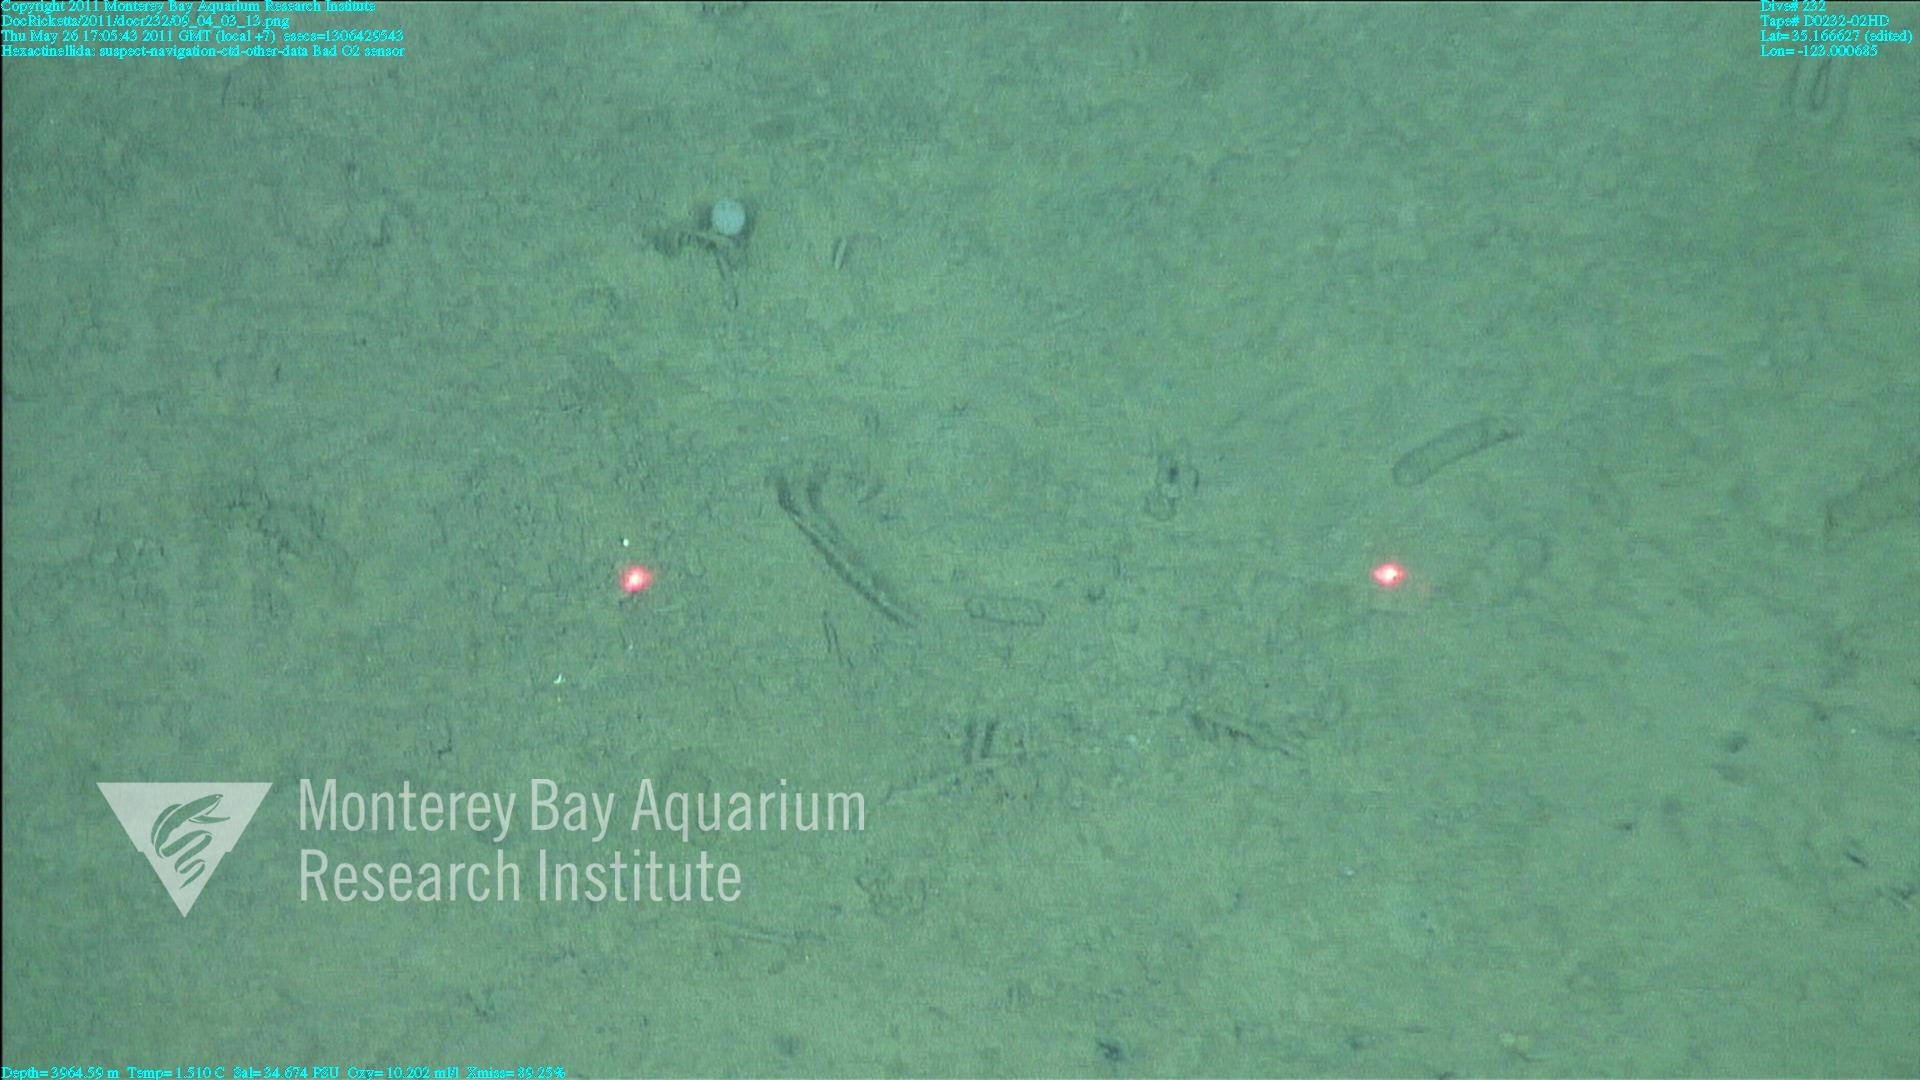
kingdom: Animalia
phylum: Porifera
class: Hexactinellida
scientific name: Hexactinellida
